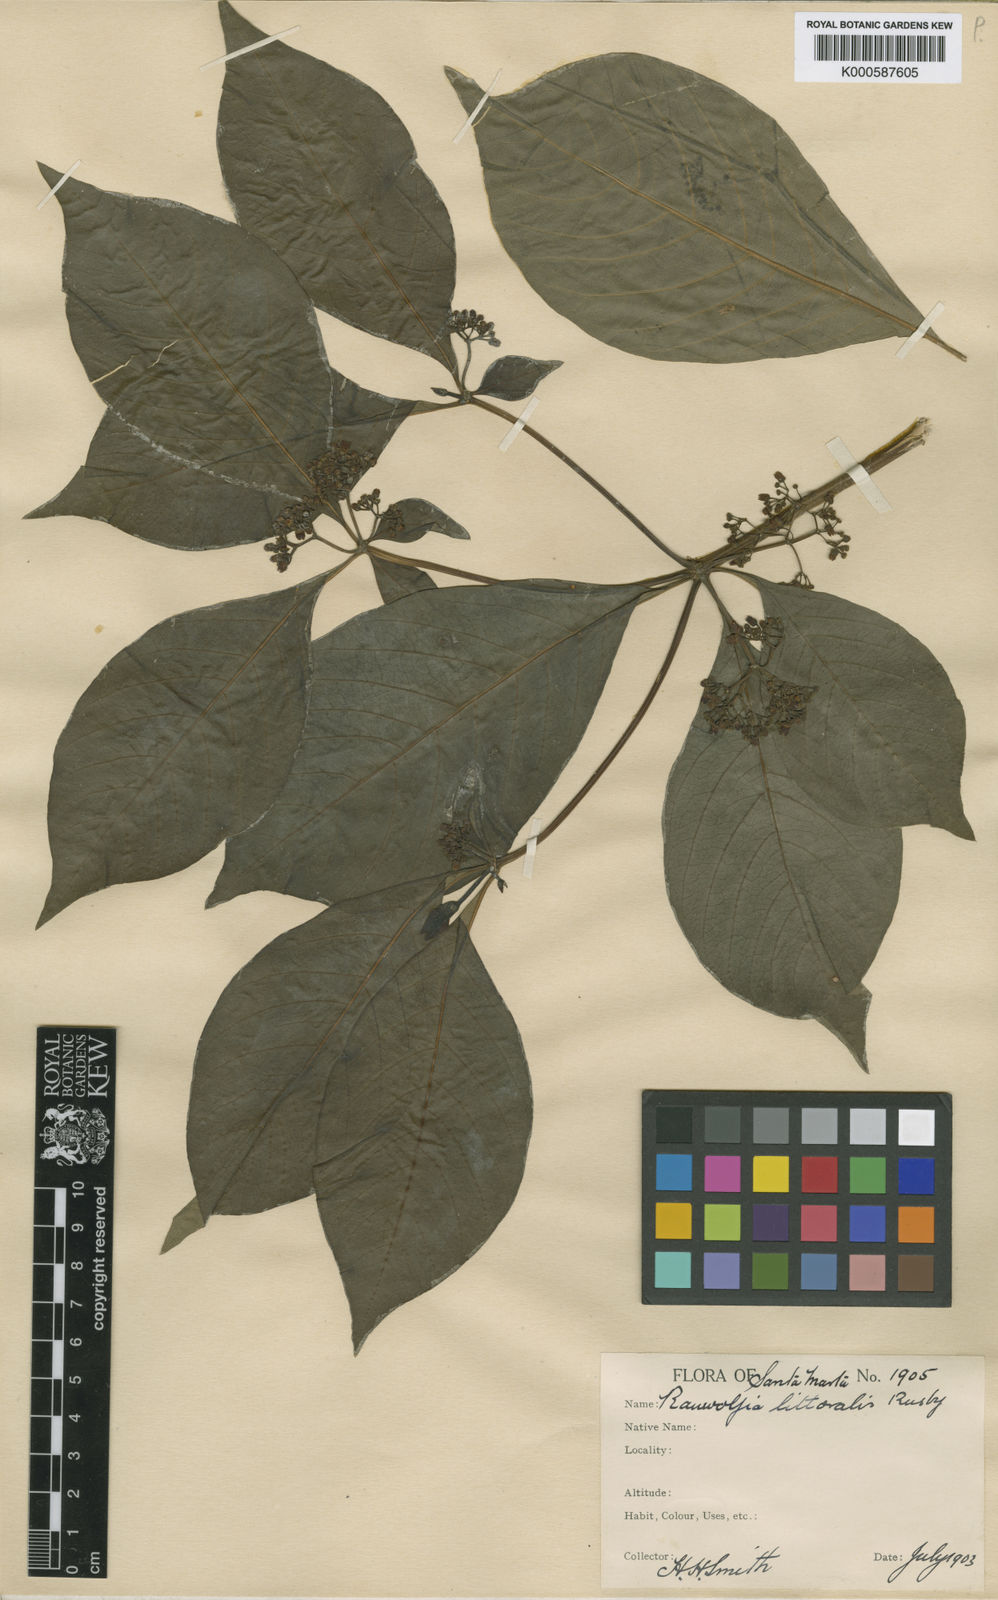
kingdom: Plantae
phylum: Tracheophyta
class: Magnoliopsida
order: Gentianales
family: Apocynaceae
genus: Rauvolfia
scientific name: Rauvolfia littoralis
